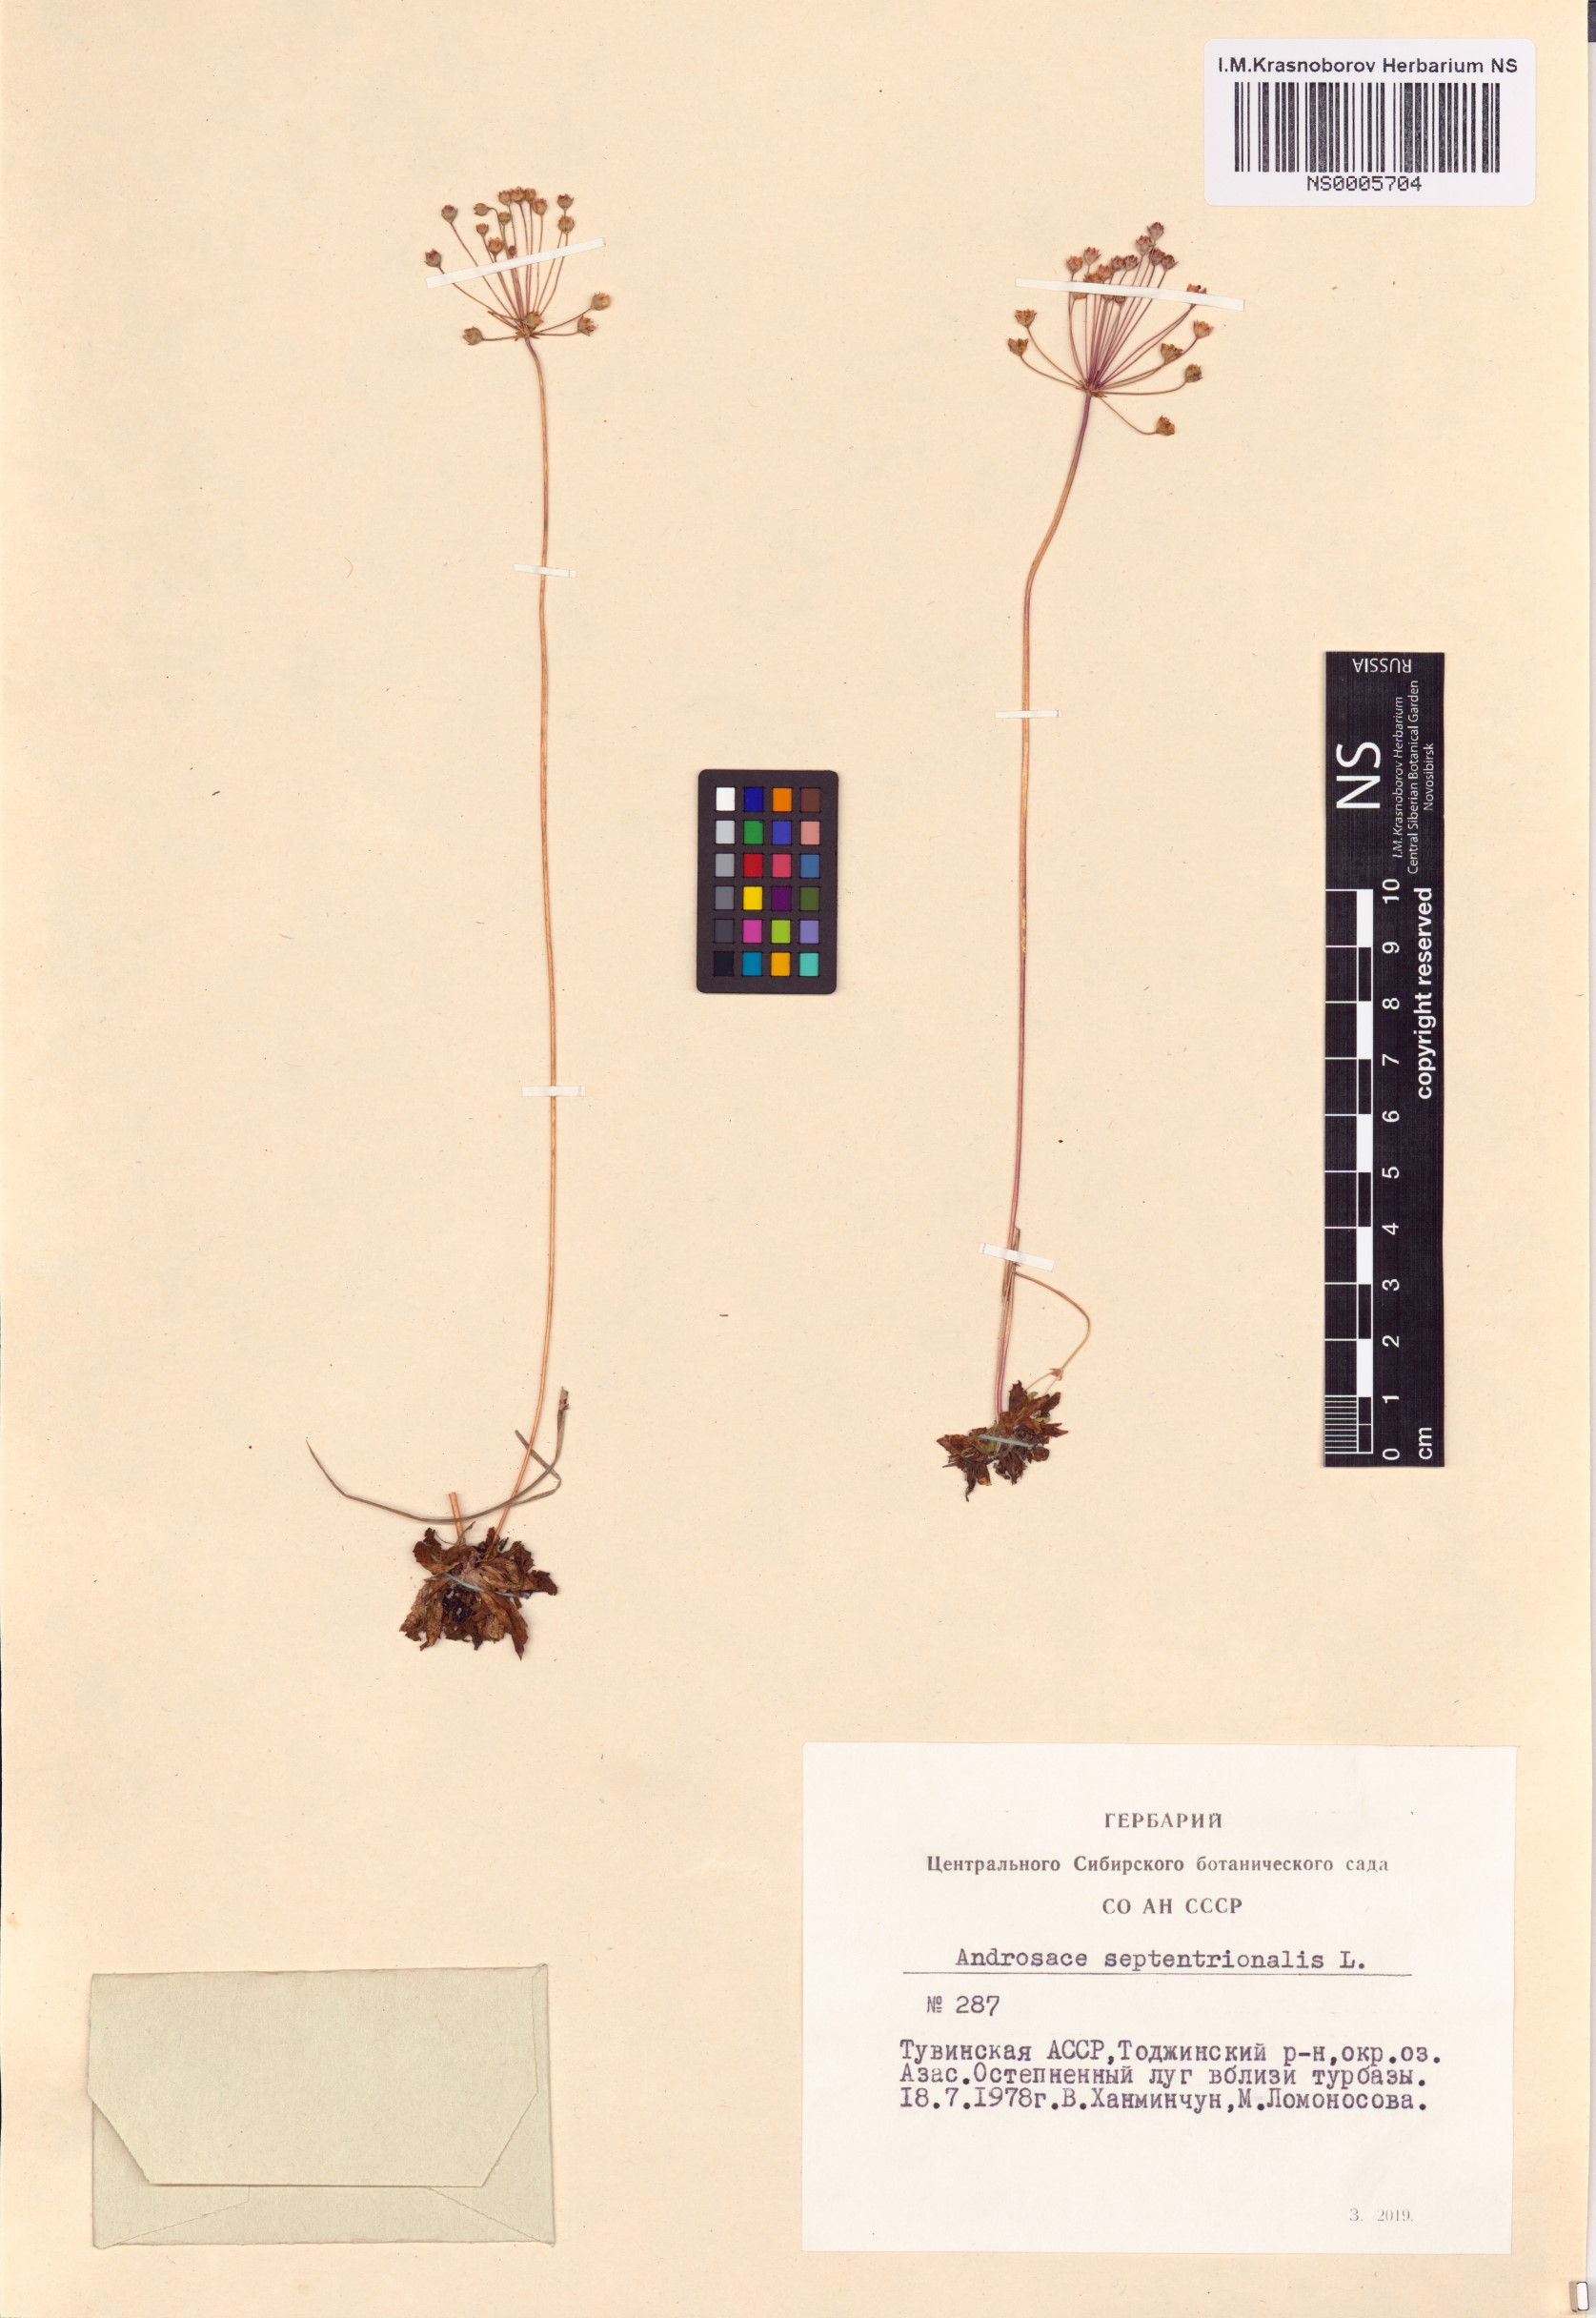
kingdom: Plantae
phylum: Tracheophyta
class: Magnoliopsida
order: Ericales
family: Primulaceae
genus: Androsace
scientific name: Androsace septentrionalis
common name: Hairy northern fairy-candelabra
